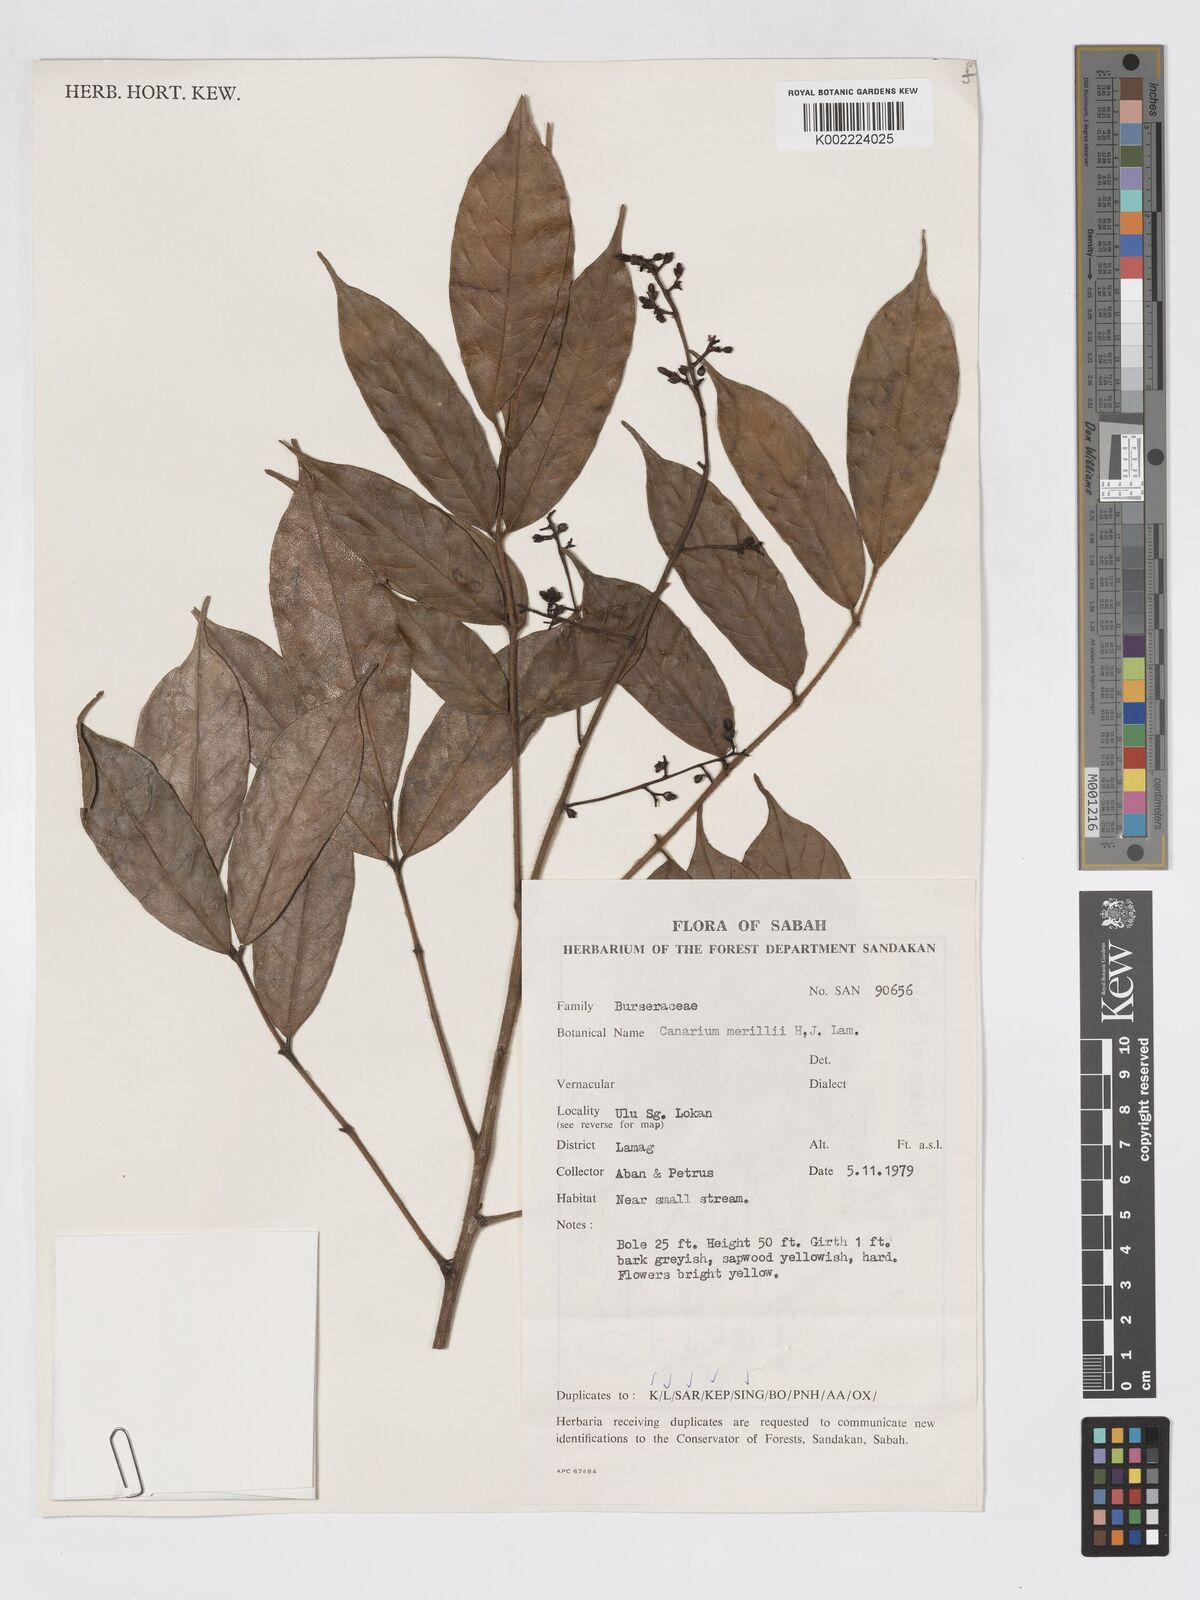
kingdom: Plantae
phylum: Tracheophyta
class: Magnoliopsida
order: Sapindales
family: Burseraceae
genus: Canarium
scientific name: Canarium merrillii
